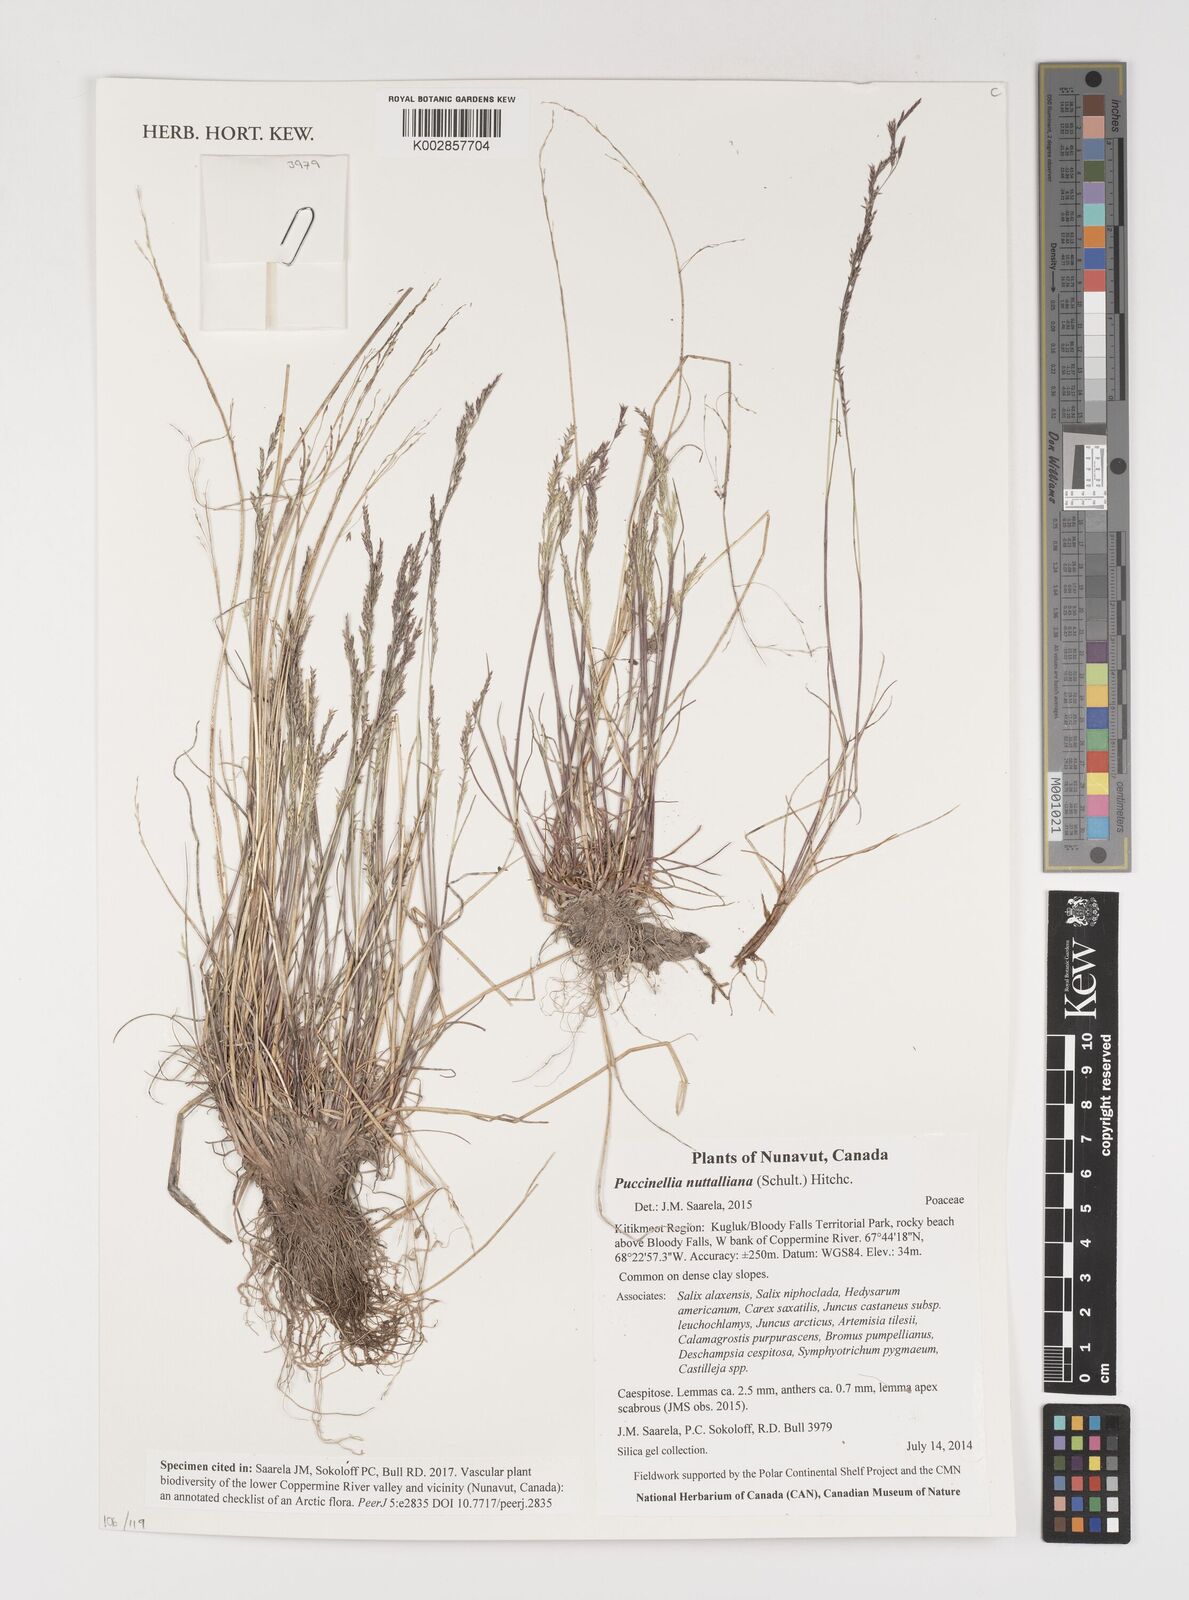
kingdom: Plantae
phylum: Tracheophyta
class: Liliopsida
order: Poales
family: Poaceae
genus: Puccinellia
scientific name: Puccinellia nuttalliana
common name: Nuttall's alkali grass
